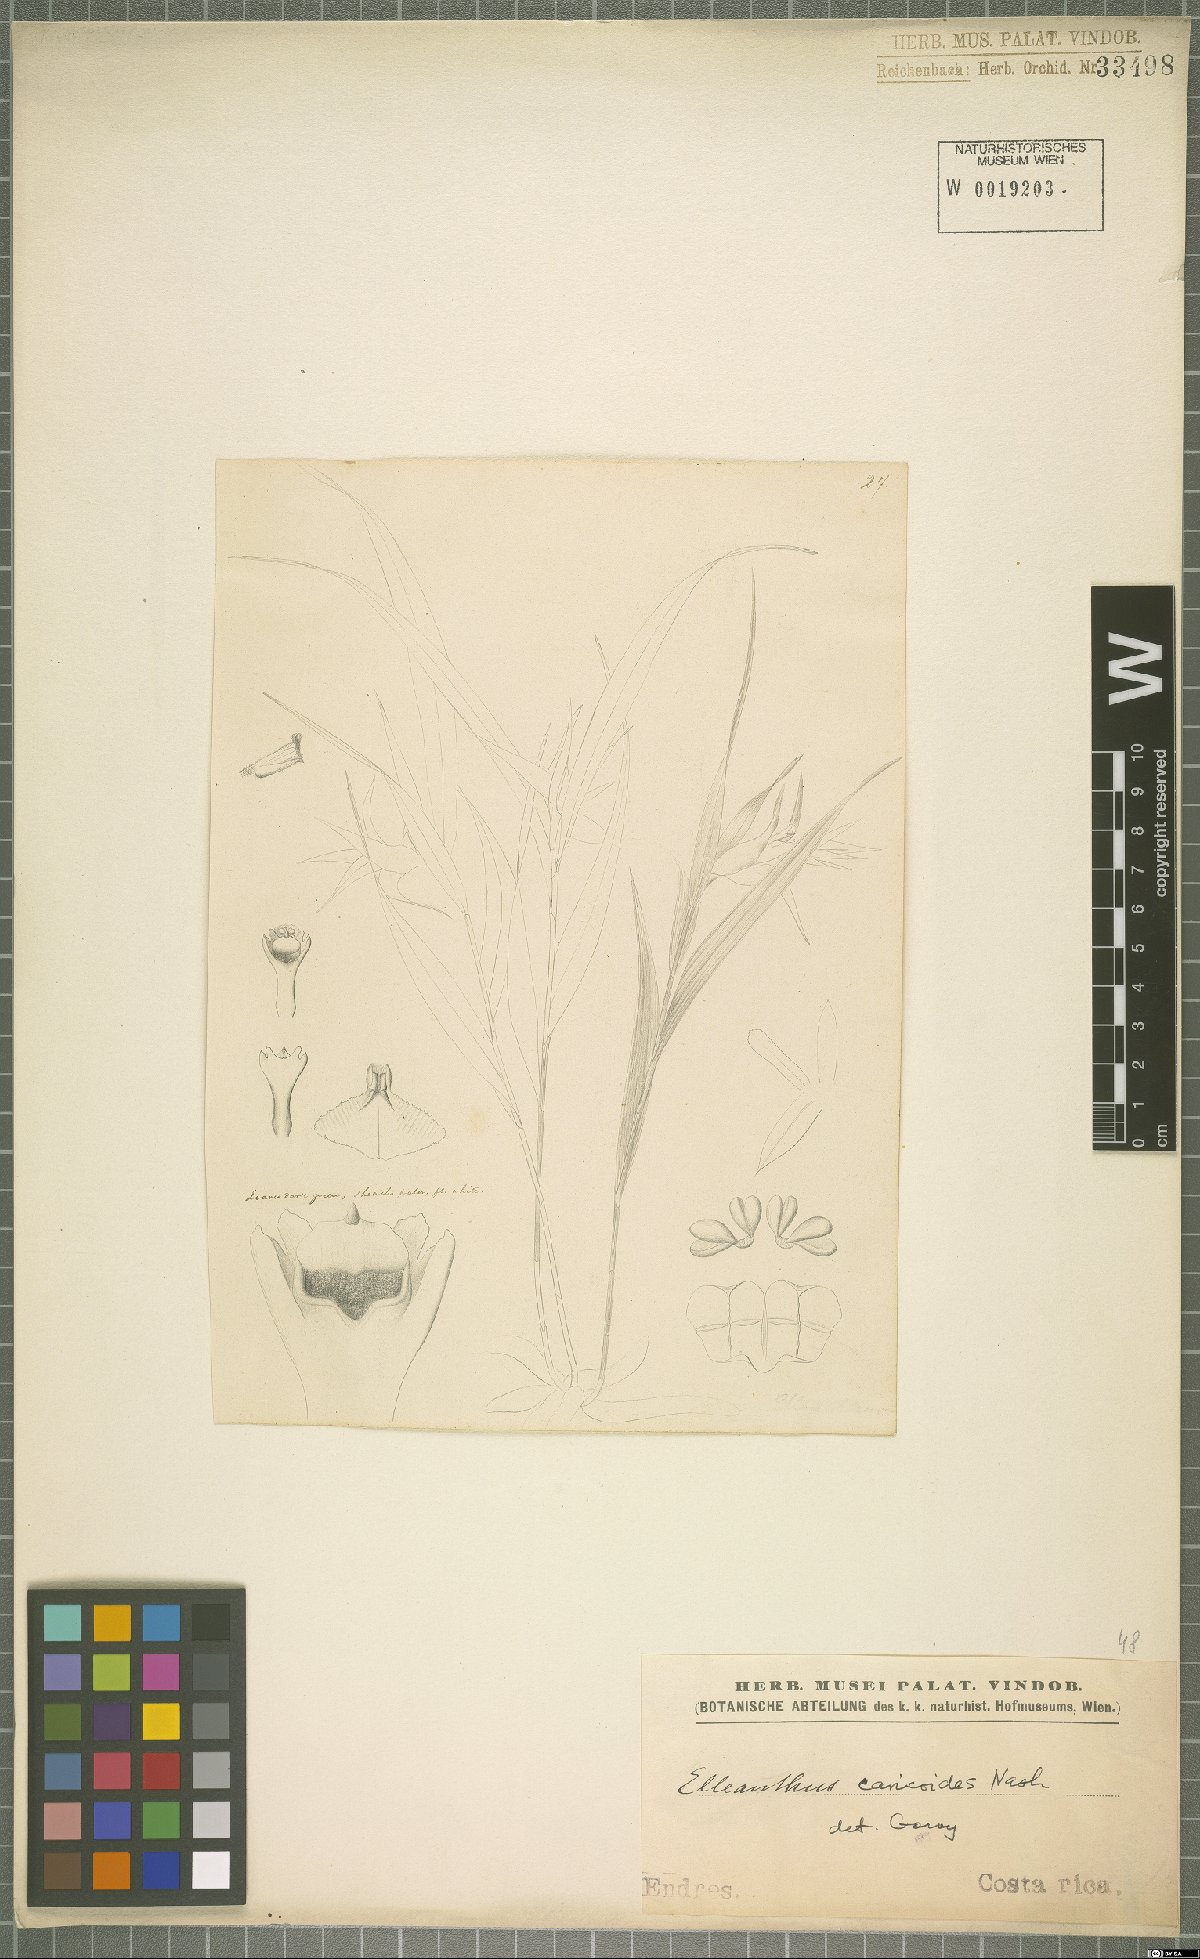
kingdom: Plantae
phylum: Tracheophyta
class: Liliopsida
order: Asparagales
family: Orchidaceae
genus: Elleanthus
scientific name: Elleanthus caricoides
